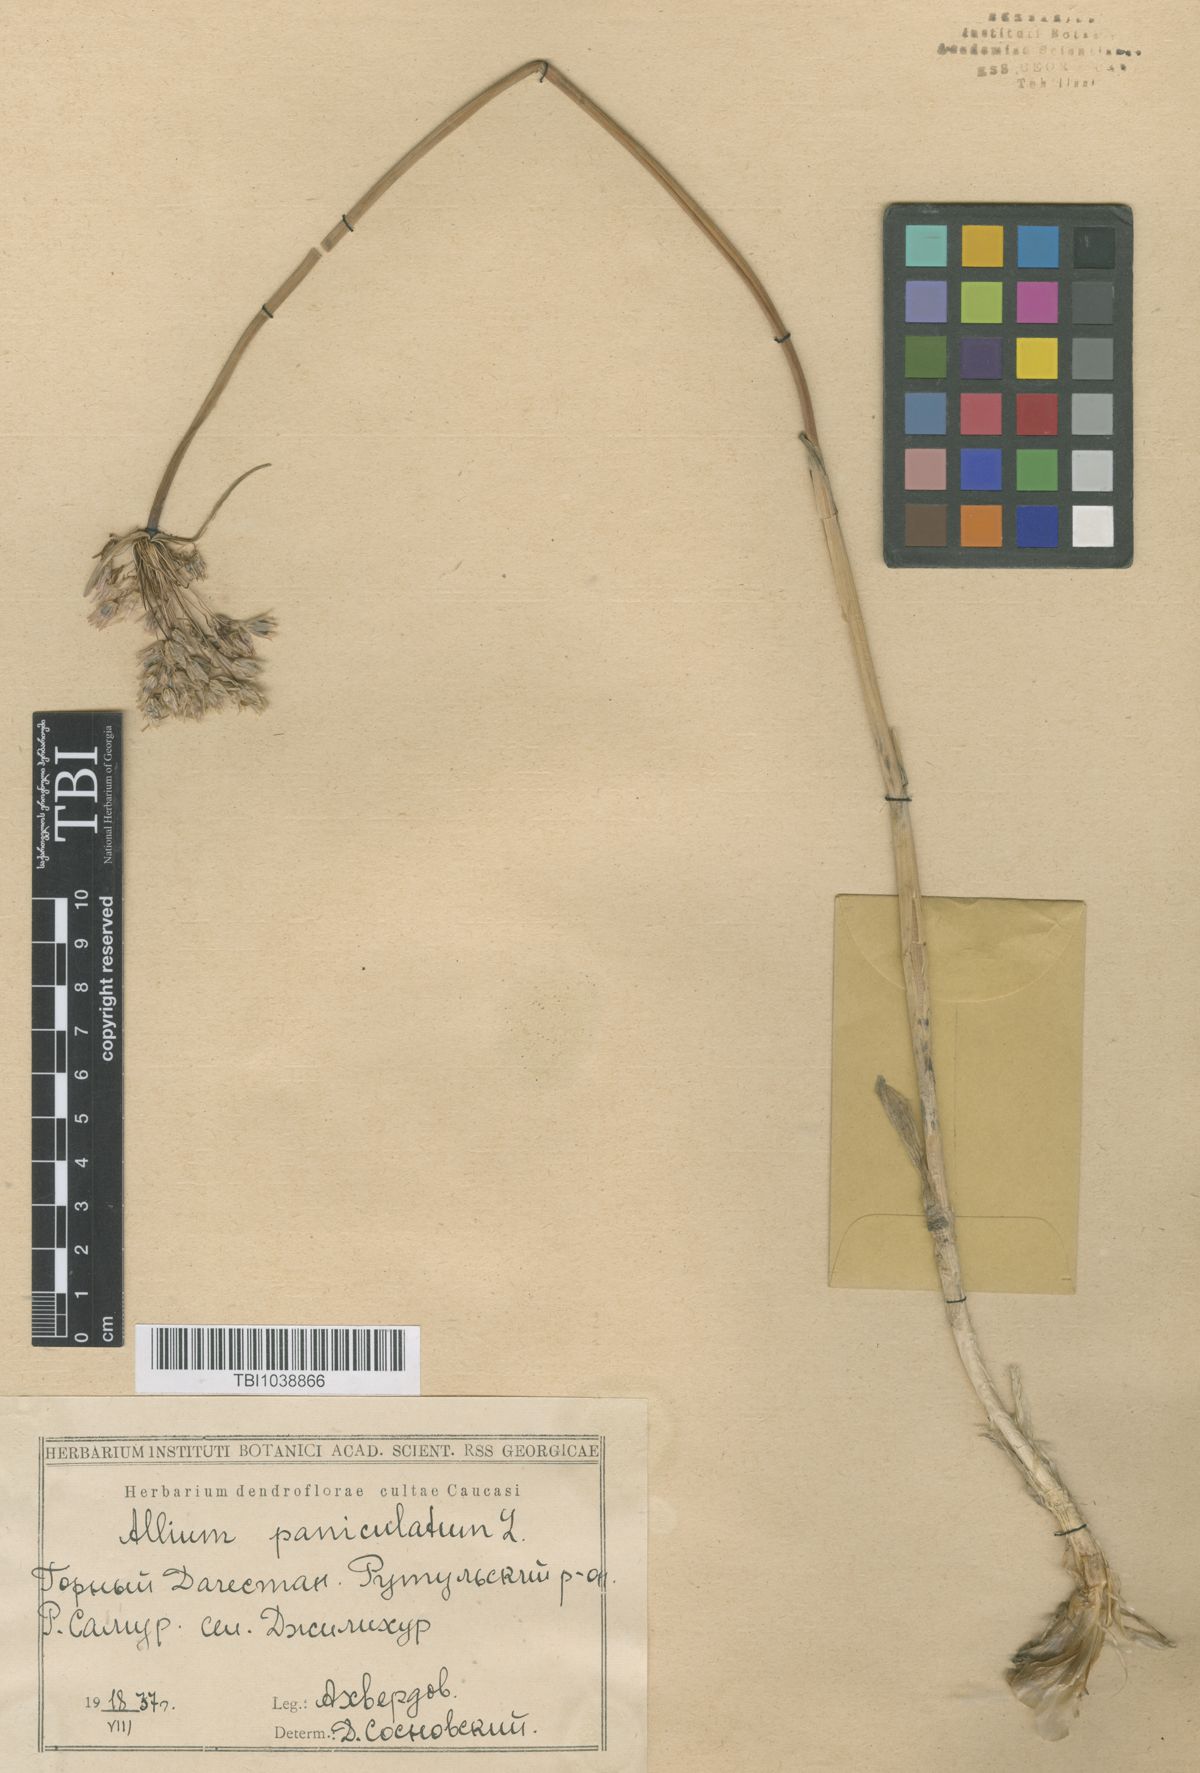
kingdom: Plantae
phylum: Tracheophyta
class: Liliopsida
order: Asparagales
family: Amaryllidaceae
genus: Allium
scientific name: Allium paniculatum
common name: Pale garlic
